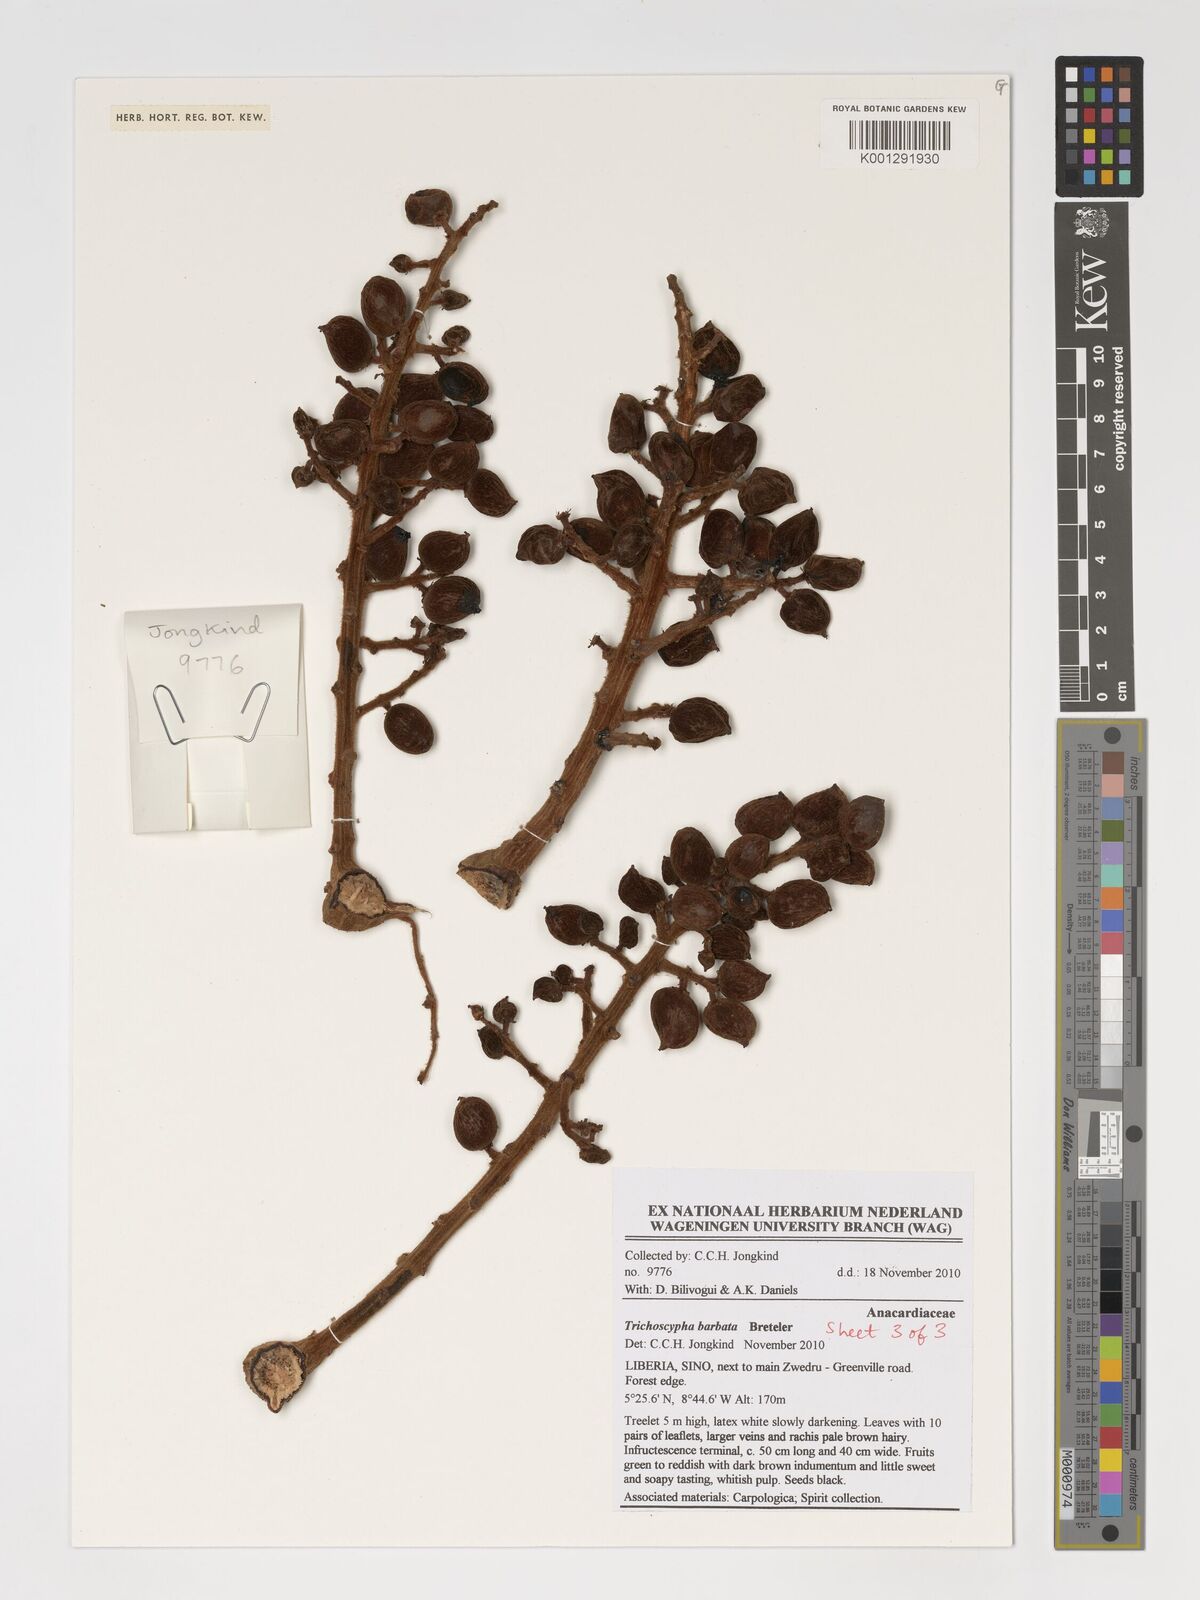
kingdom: Plantae
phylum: Tracheophyta
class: Magnoliopsida
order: Sapindales
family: Anacardiaceae
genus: Trichoscypha
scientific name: Trichoscypha barbata
